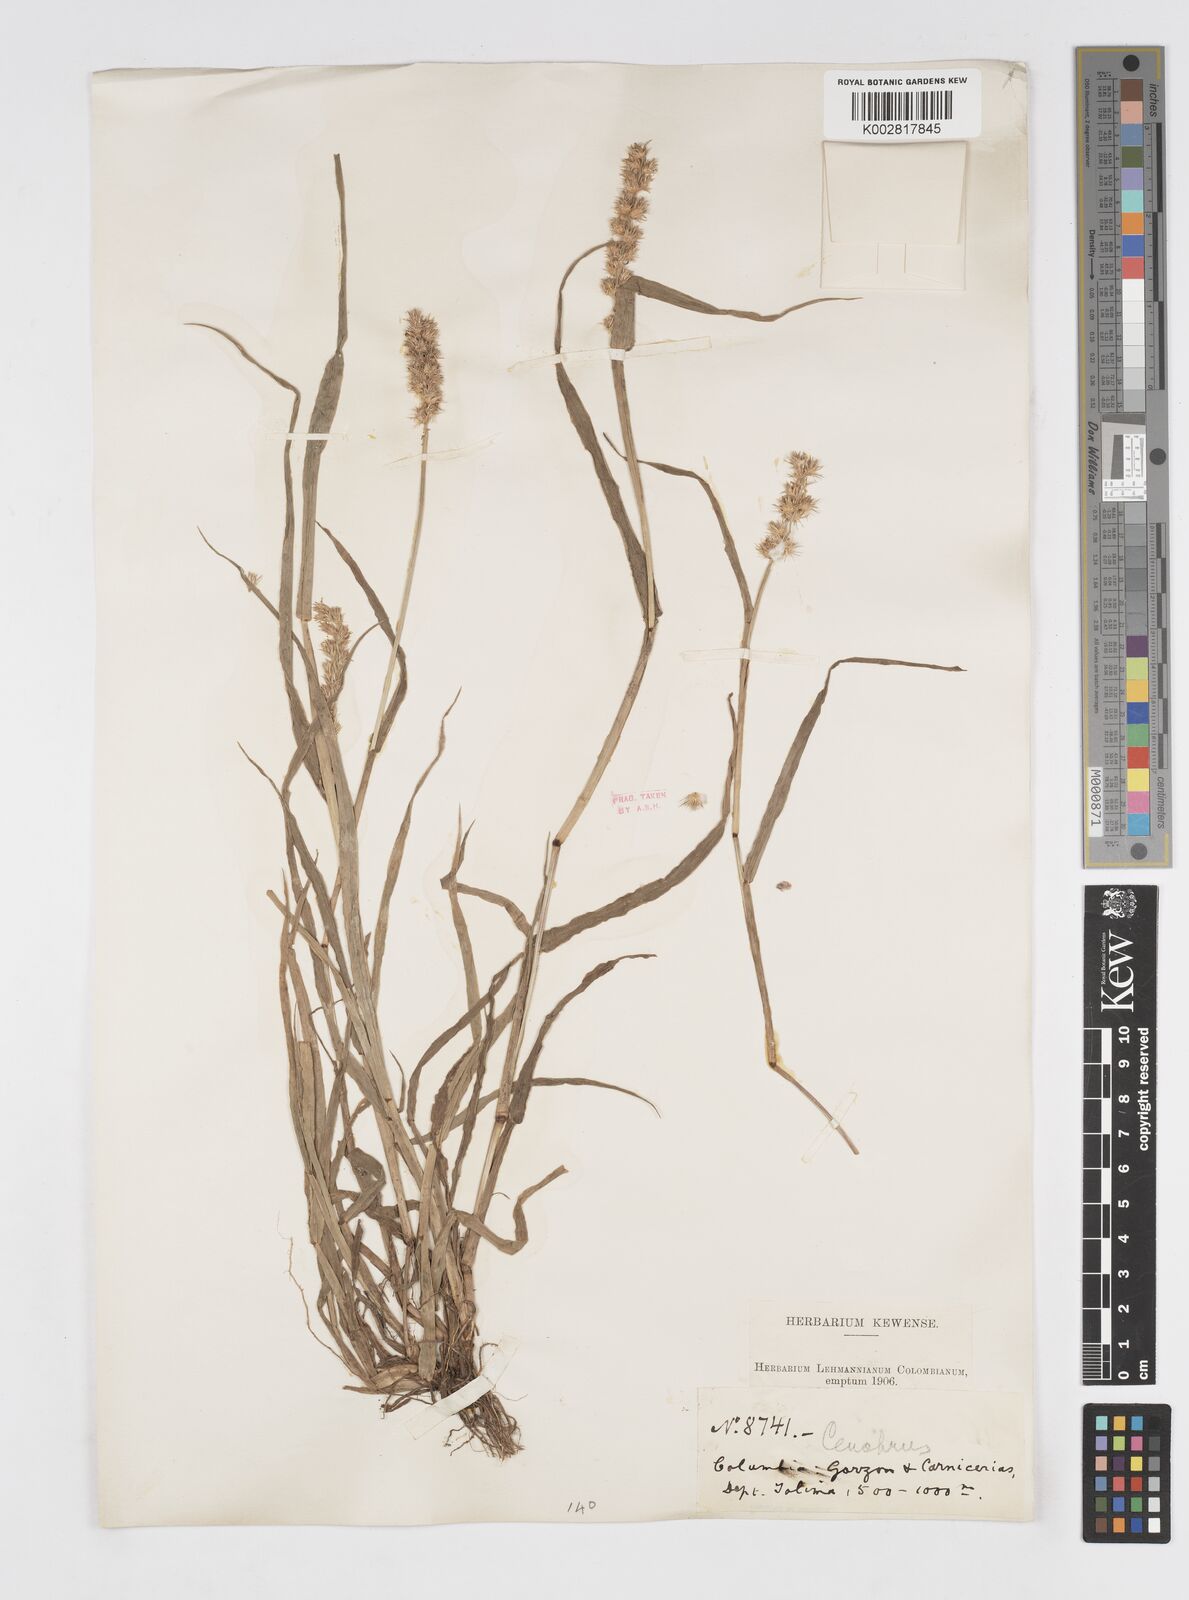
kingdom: Plantae
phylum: Tracheophyta
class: Liliopsida
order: Poales
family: Poaceae
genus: Cenchrus
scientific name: Cenchrus
